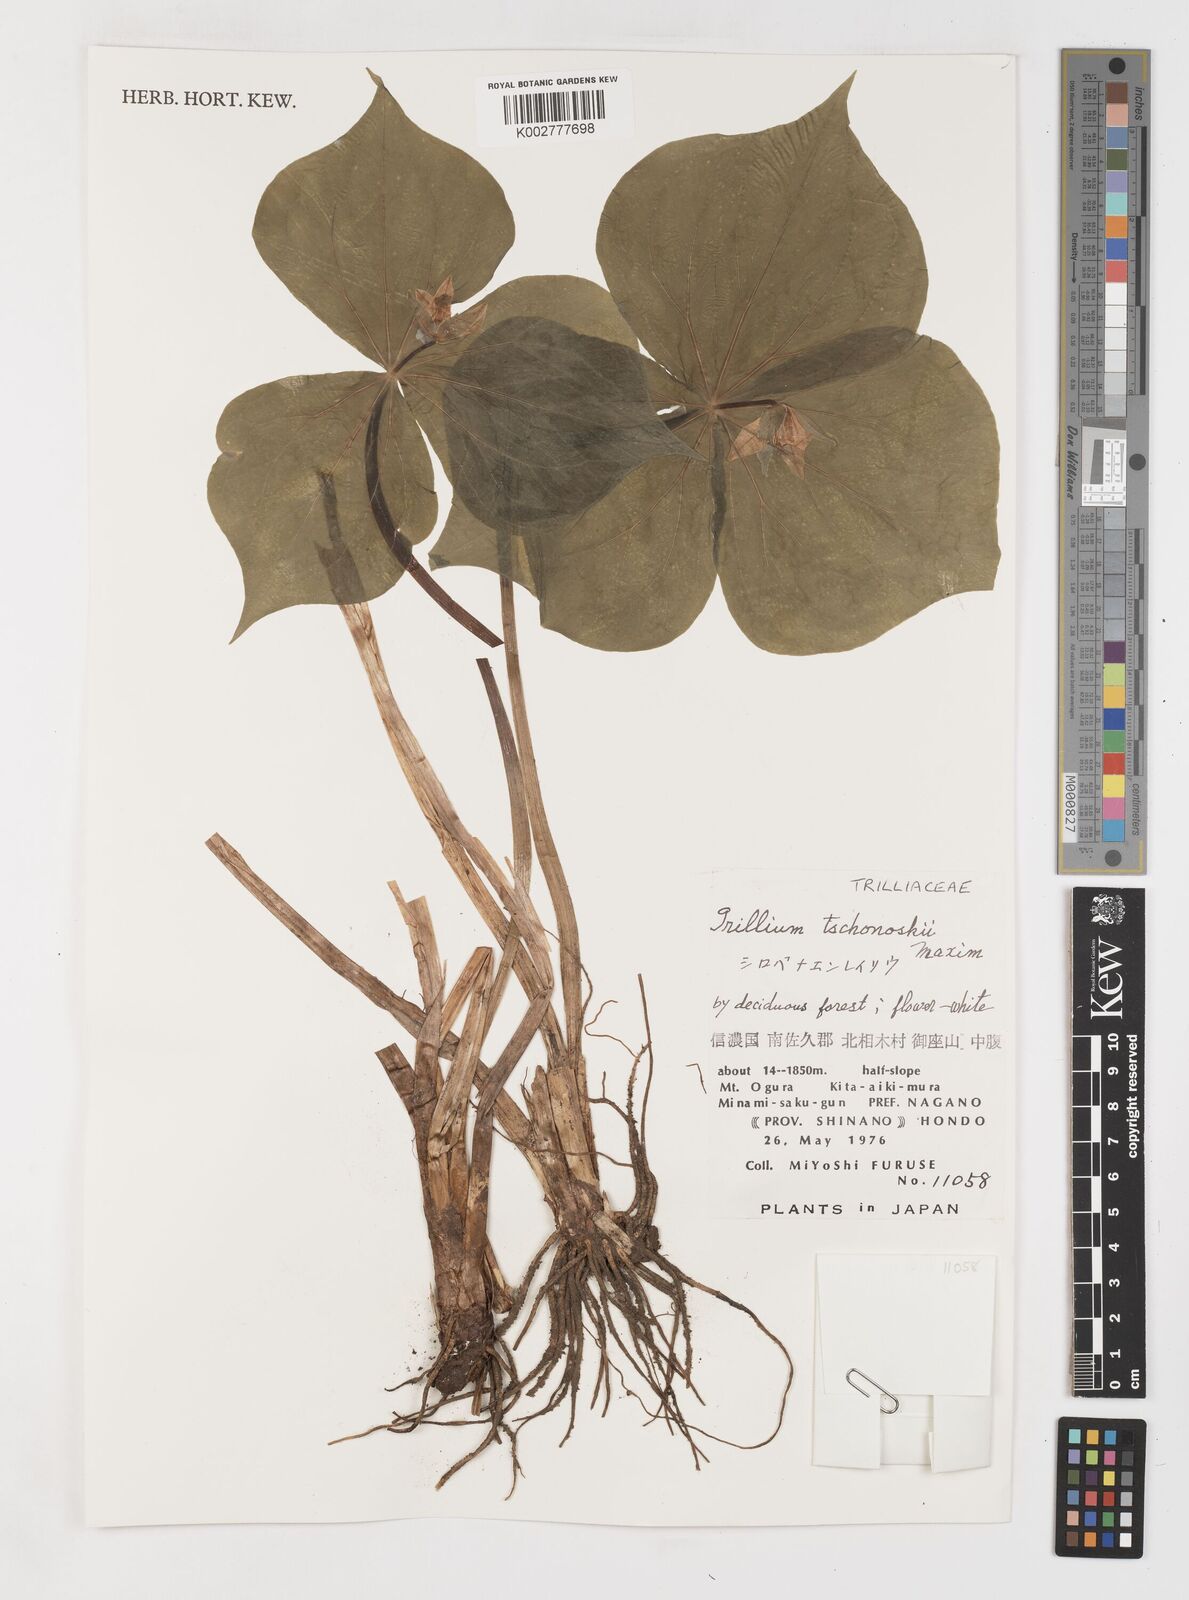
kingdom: Plantae
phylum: Tracheophyta
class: Liliopsida
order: Liliales
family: Melanthiaceae
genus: Trillium
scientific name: Trillium tschonoskii
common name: A pearl on head
